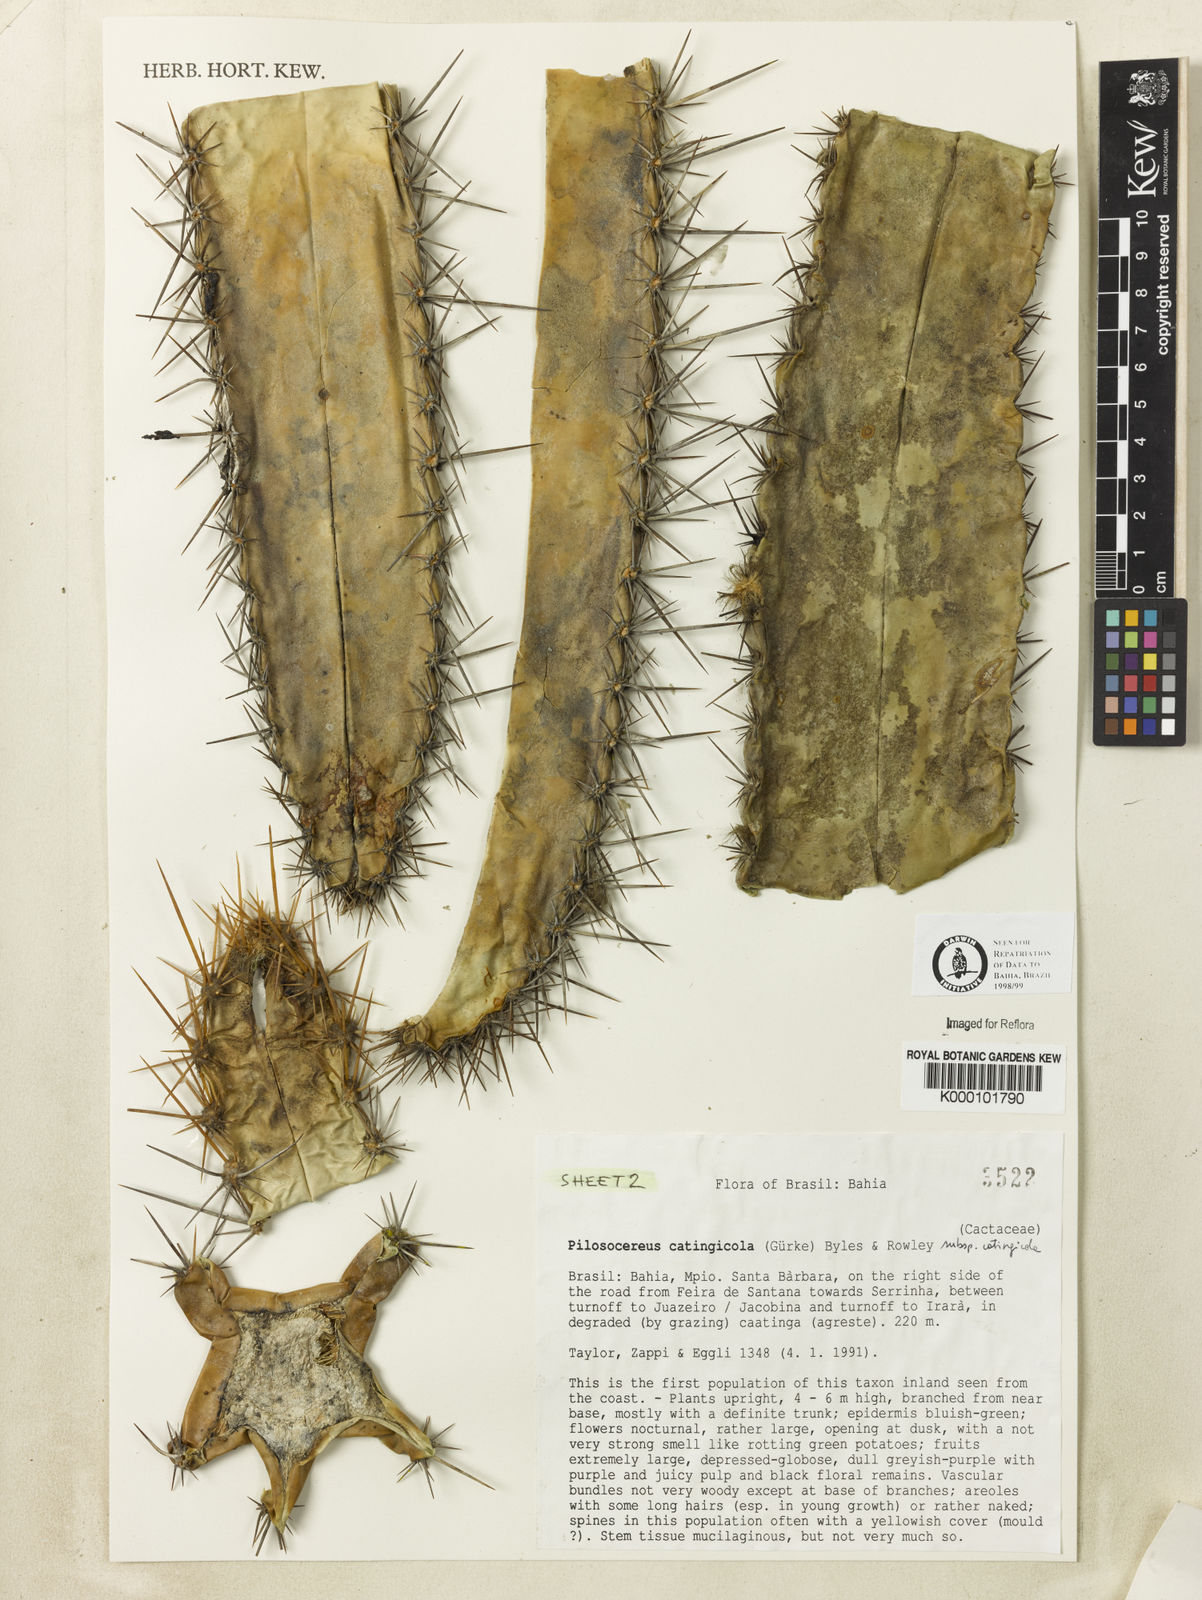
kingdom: Plantae
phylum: Tracheophyta
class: Magnoliopsida
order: Caryophyllales
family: Cactaceae
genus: Pilosocereus
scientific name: Pilosocereus catingicola
